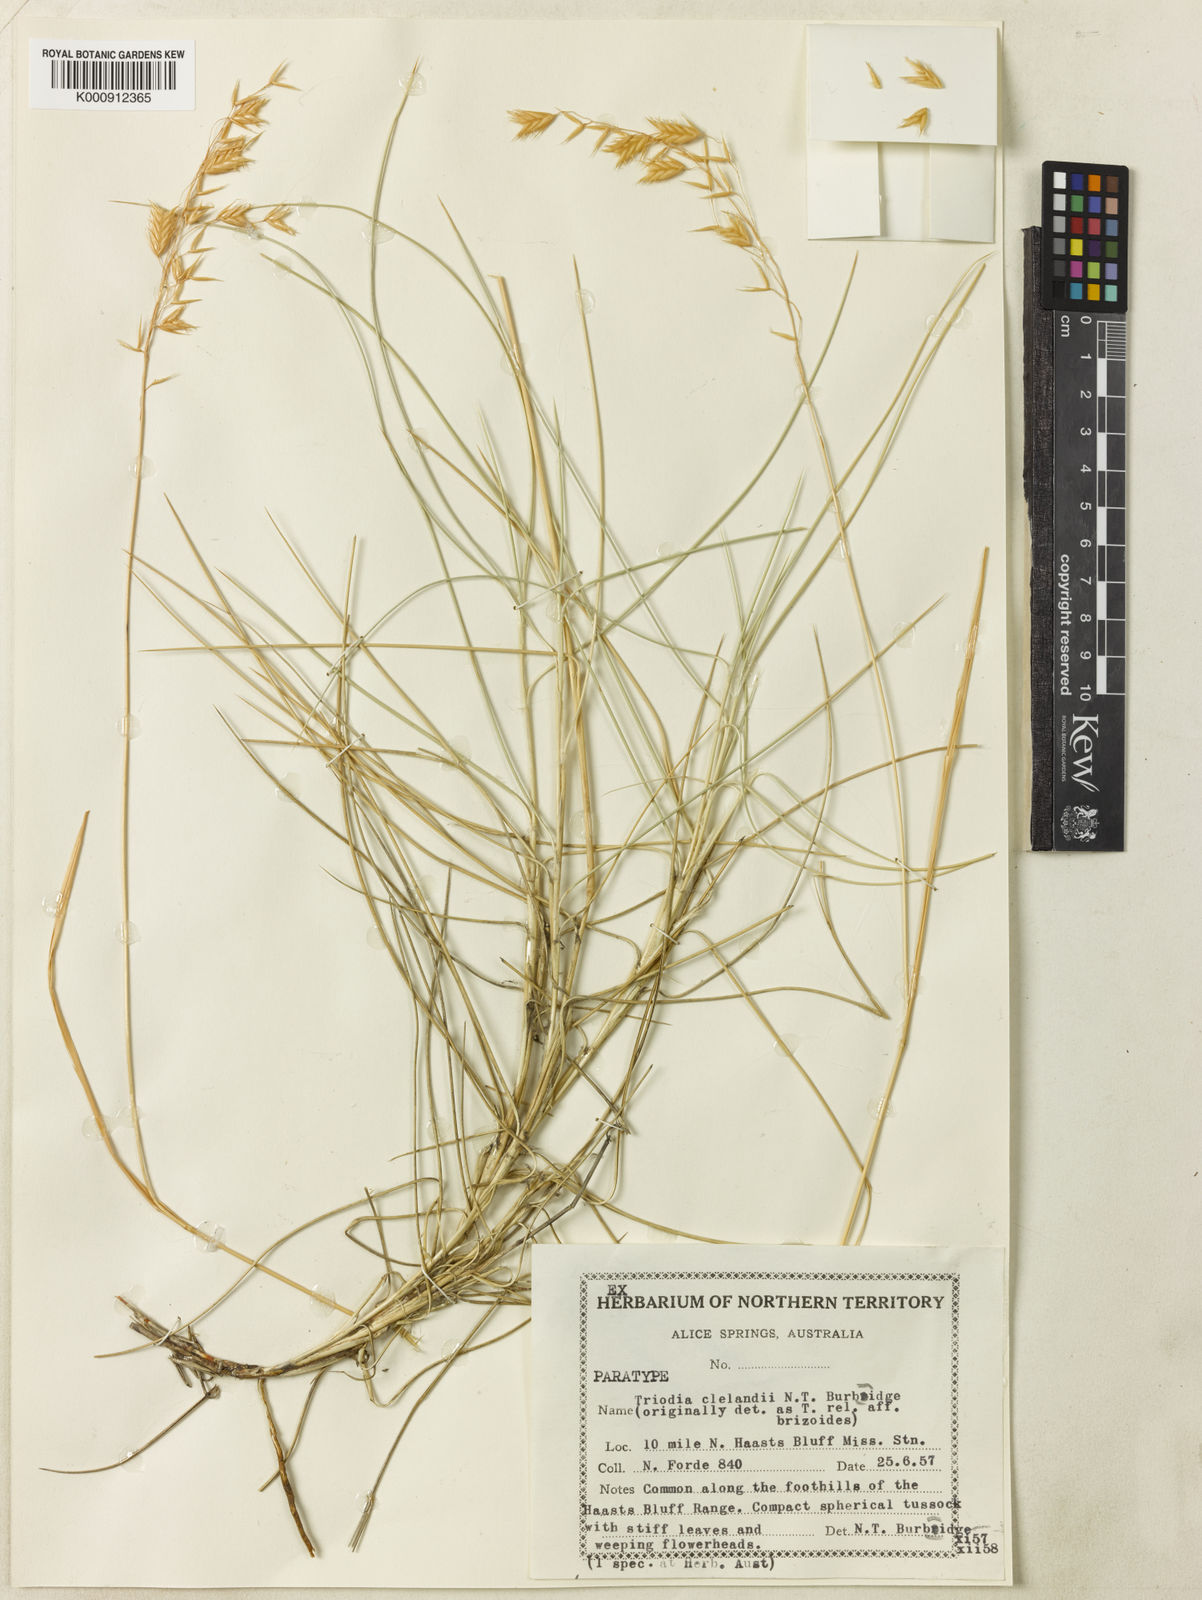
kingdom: Plantae
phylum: Tracheophyta
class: Liliopsida
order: Poales
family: Poaceae
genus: Triodia
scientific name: Triodia brizoides
